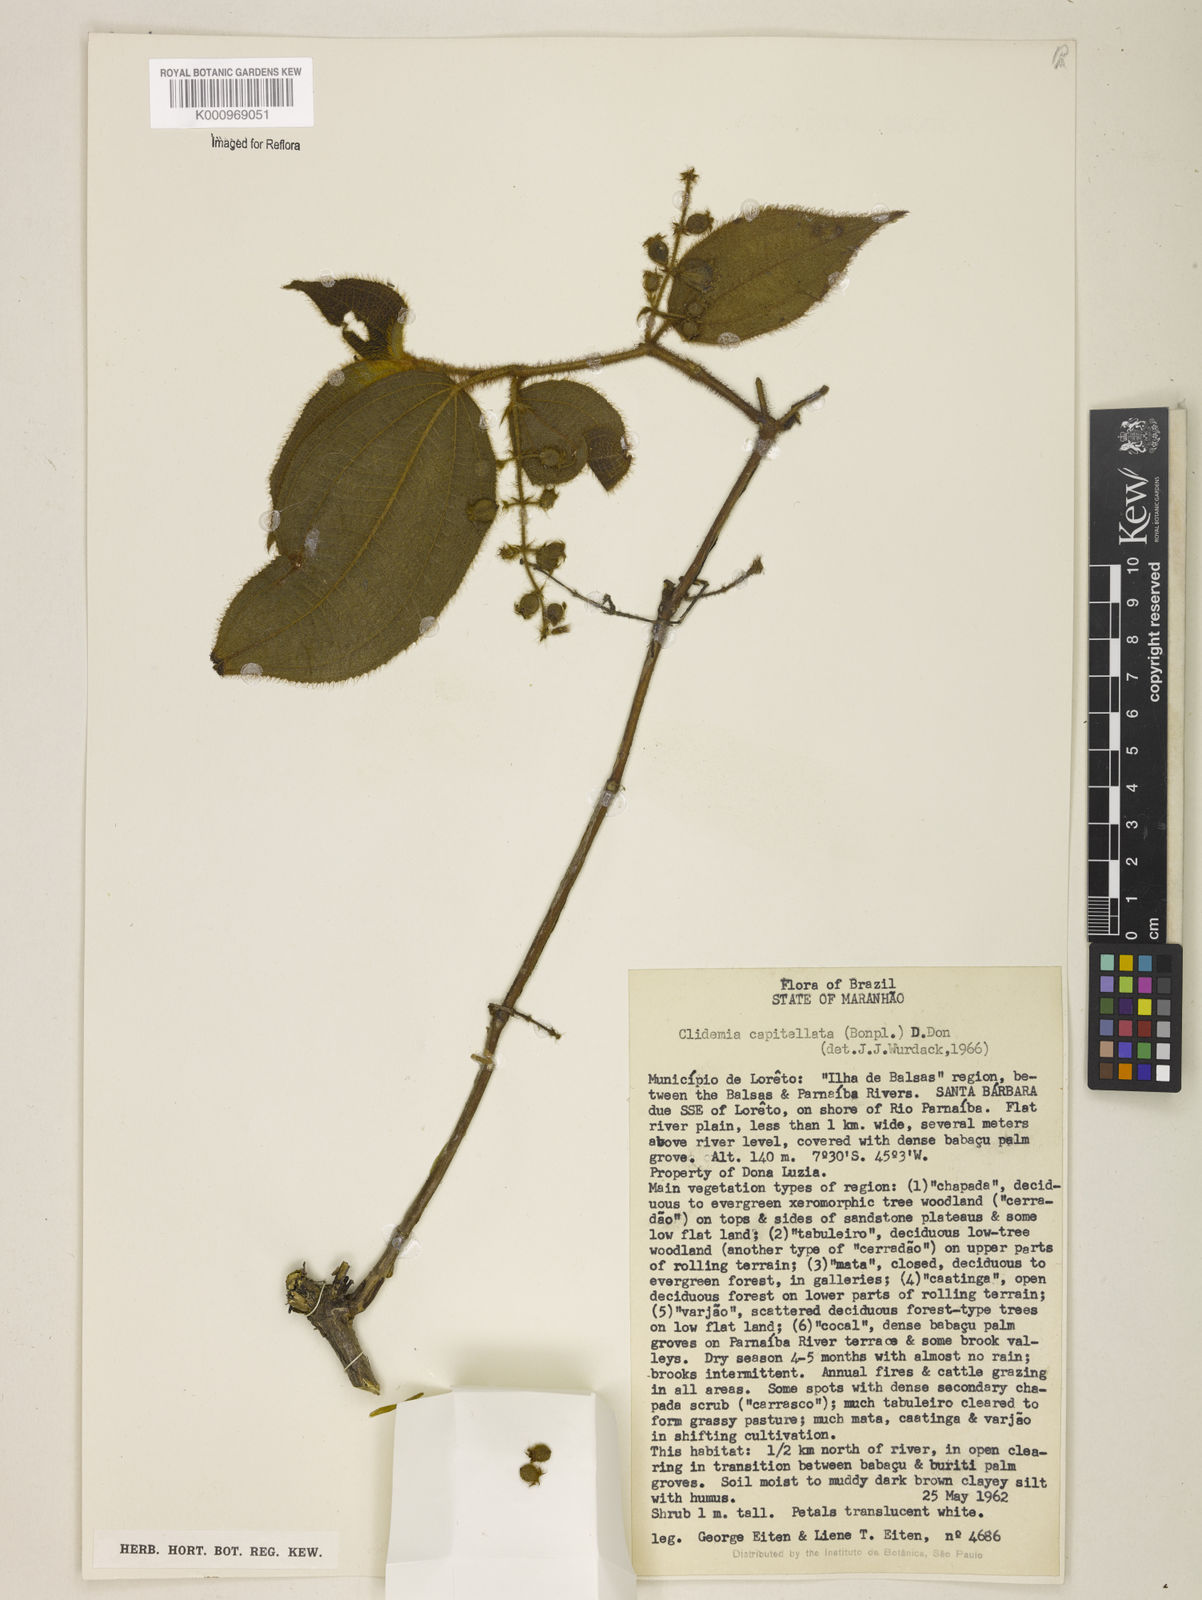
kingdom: Plantae
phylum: Tracheophyta
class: Magnoliopsida
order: Myrtales
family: Melastomataceae
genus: Miconia
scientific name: Miconia dependens
